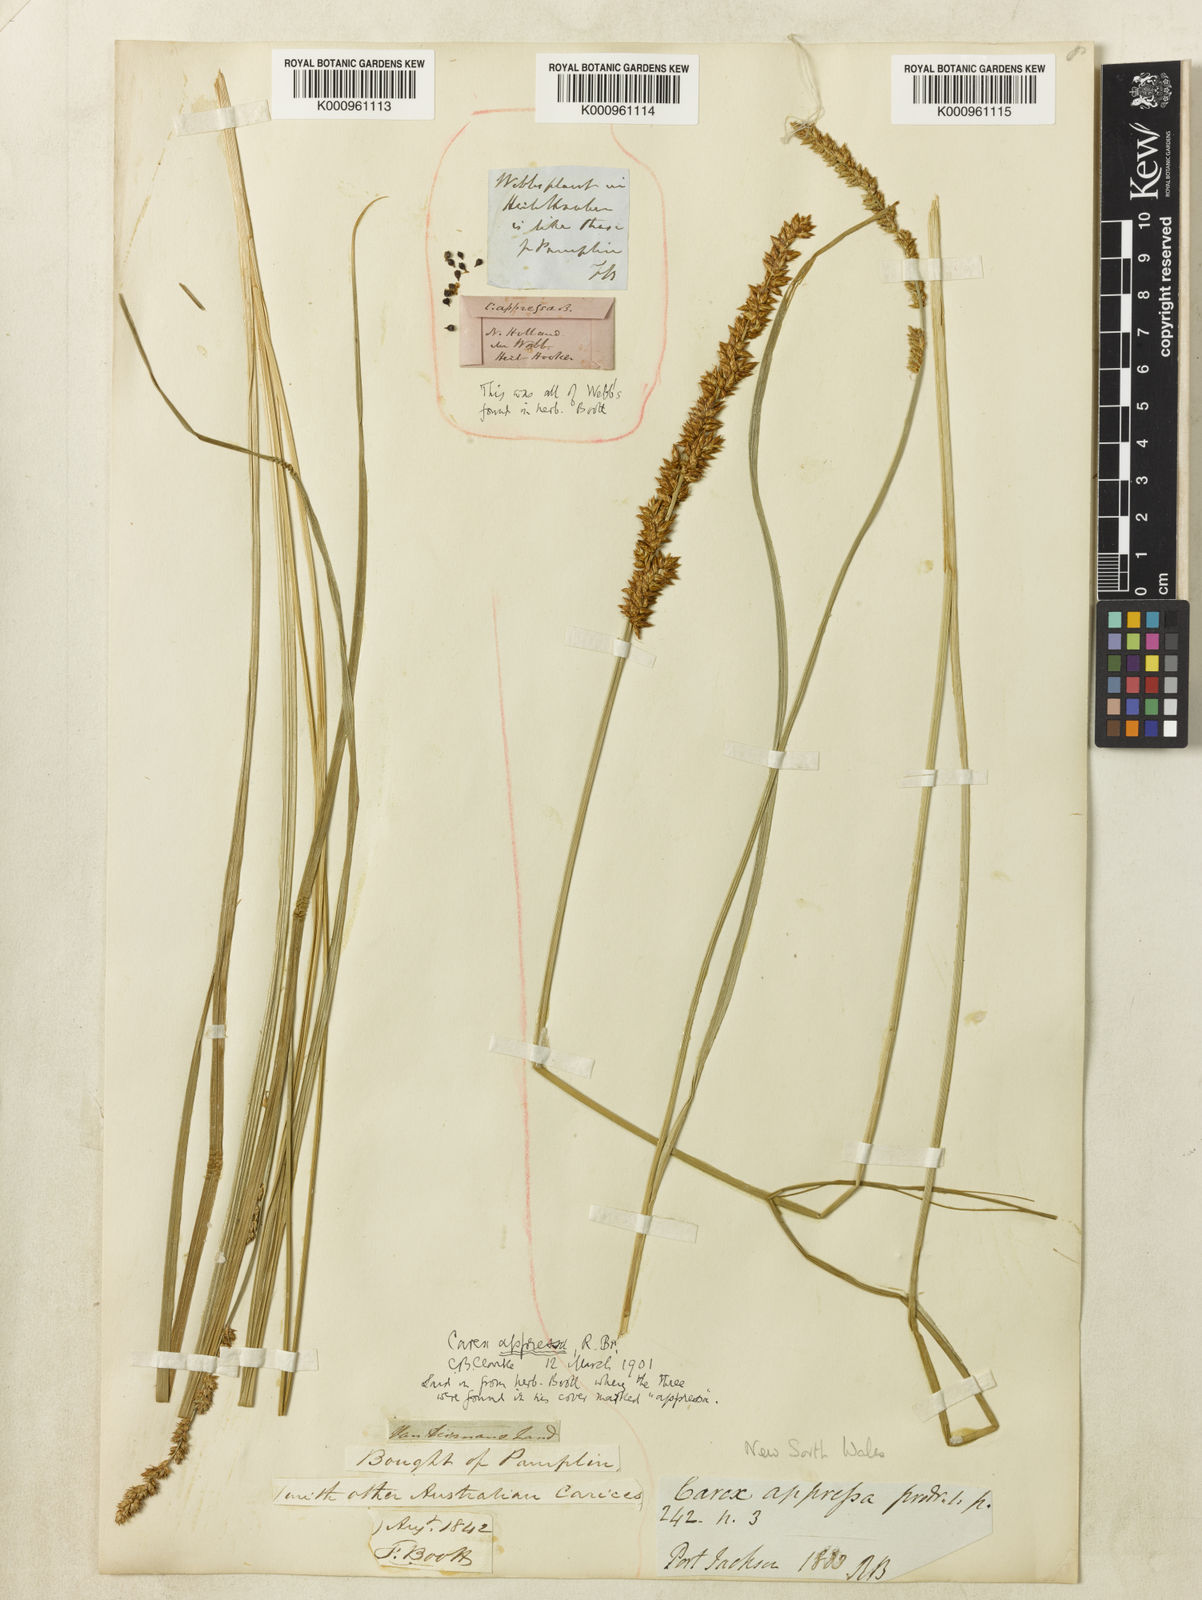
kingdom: Plantae
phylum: Tracheophyta
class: Liliopsida
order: Poales
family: Cyperaceae
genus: Carex
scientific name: Carex appressa
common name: Tussock sedge
